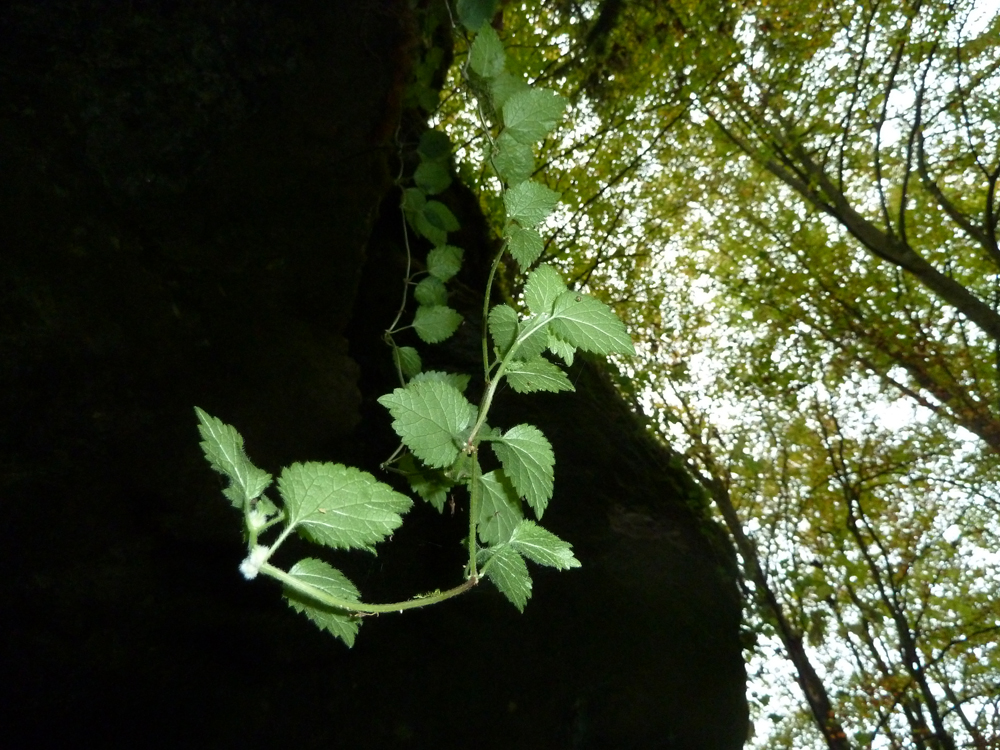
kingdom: Plantae
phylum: Tracheophyta
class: Magnoliopsida
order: Lamiales
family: Lamiaceae
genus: Lamium
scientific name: Lamium maculatum
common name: Spotted dead-nettle
